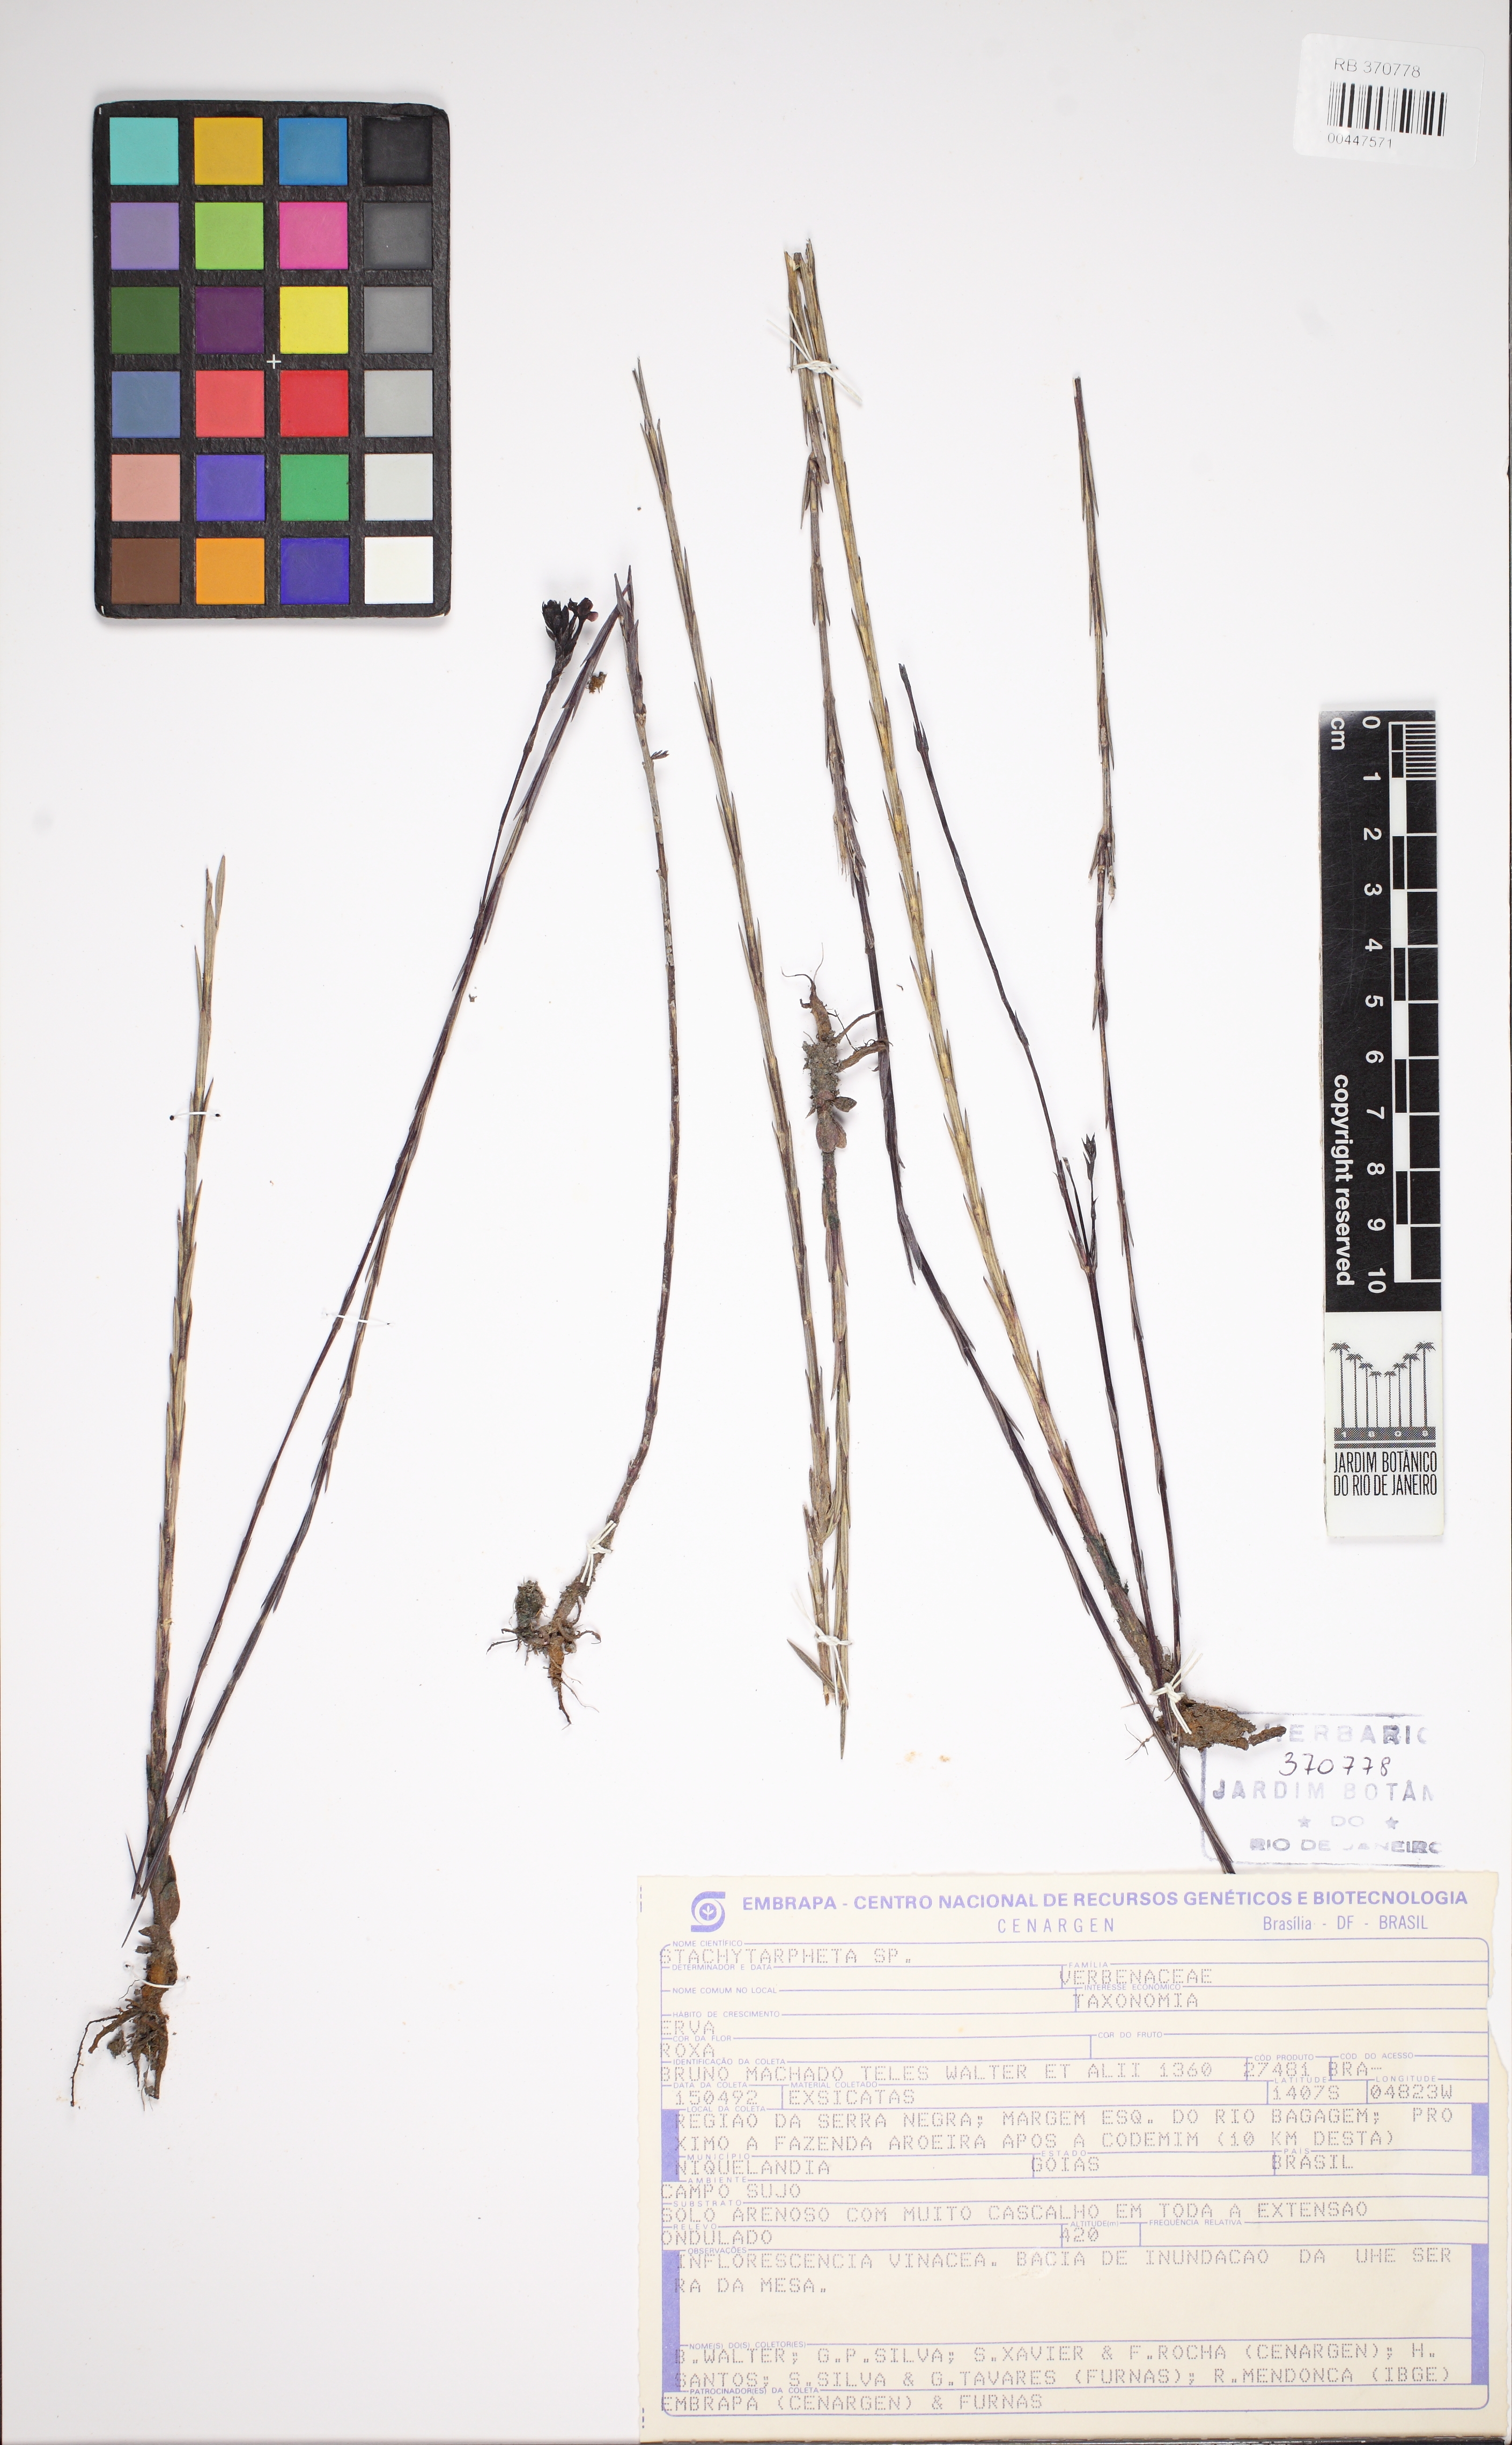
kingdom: Plantae
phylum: Tracheophyta
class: Magnoliopsida
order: Lamiales
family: Orobanchaceae
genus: Buchnera
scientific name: Buchnera juncea
